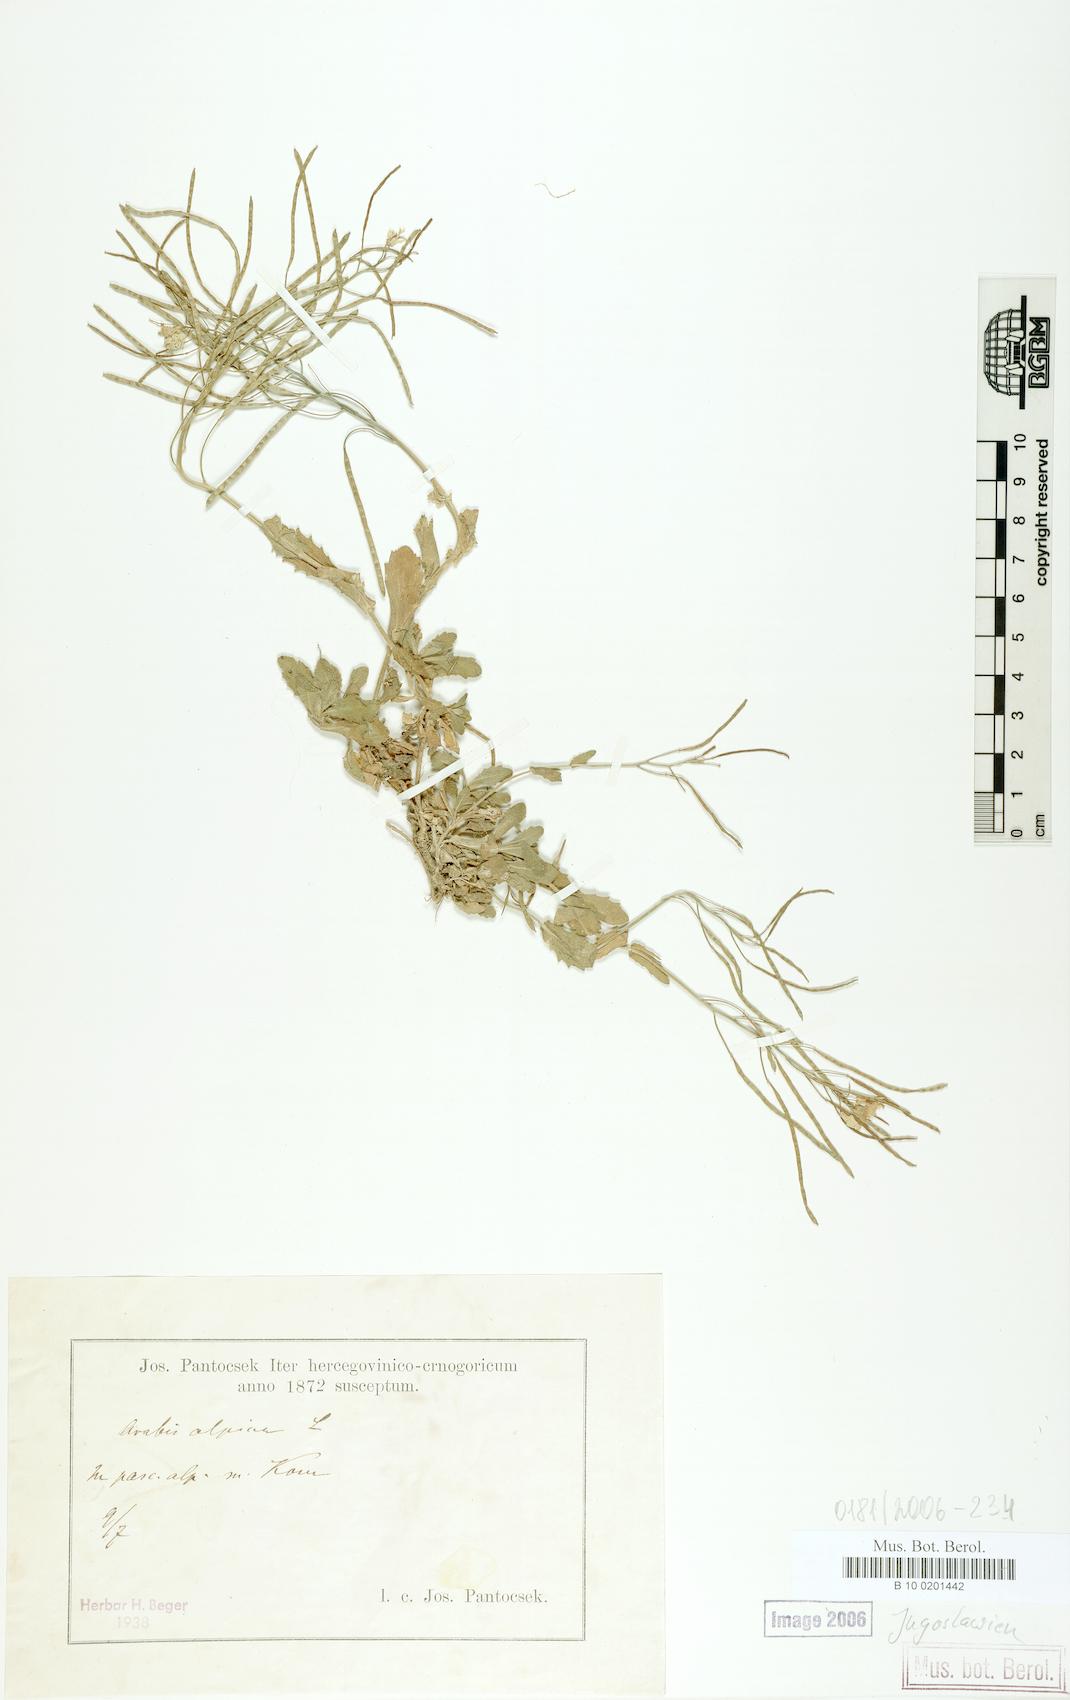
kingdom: Plantae
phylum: Tracheophyta
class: Magnoliopsida
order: Brassicales
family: Brassicaceae
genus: Arabis
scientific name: Arabis alpina
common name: Alpine rock-cress
